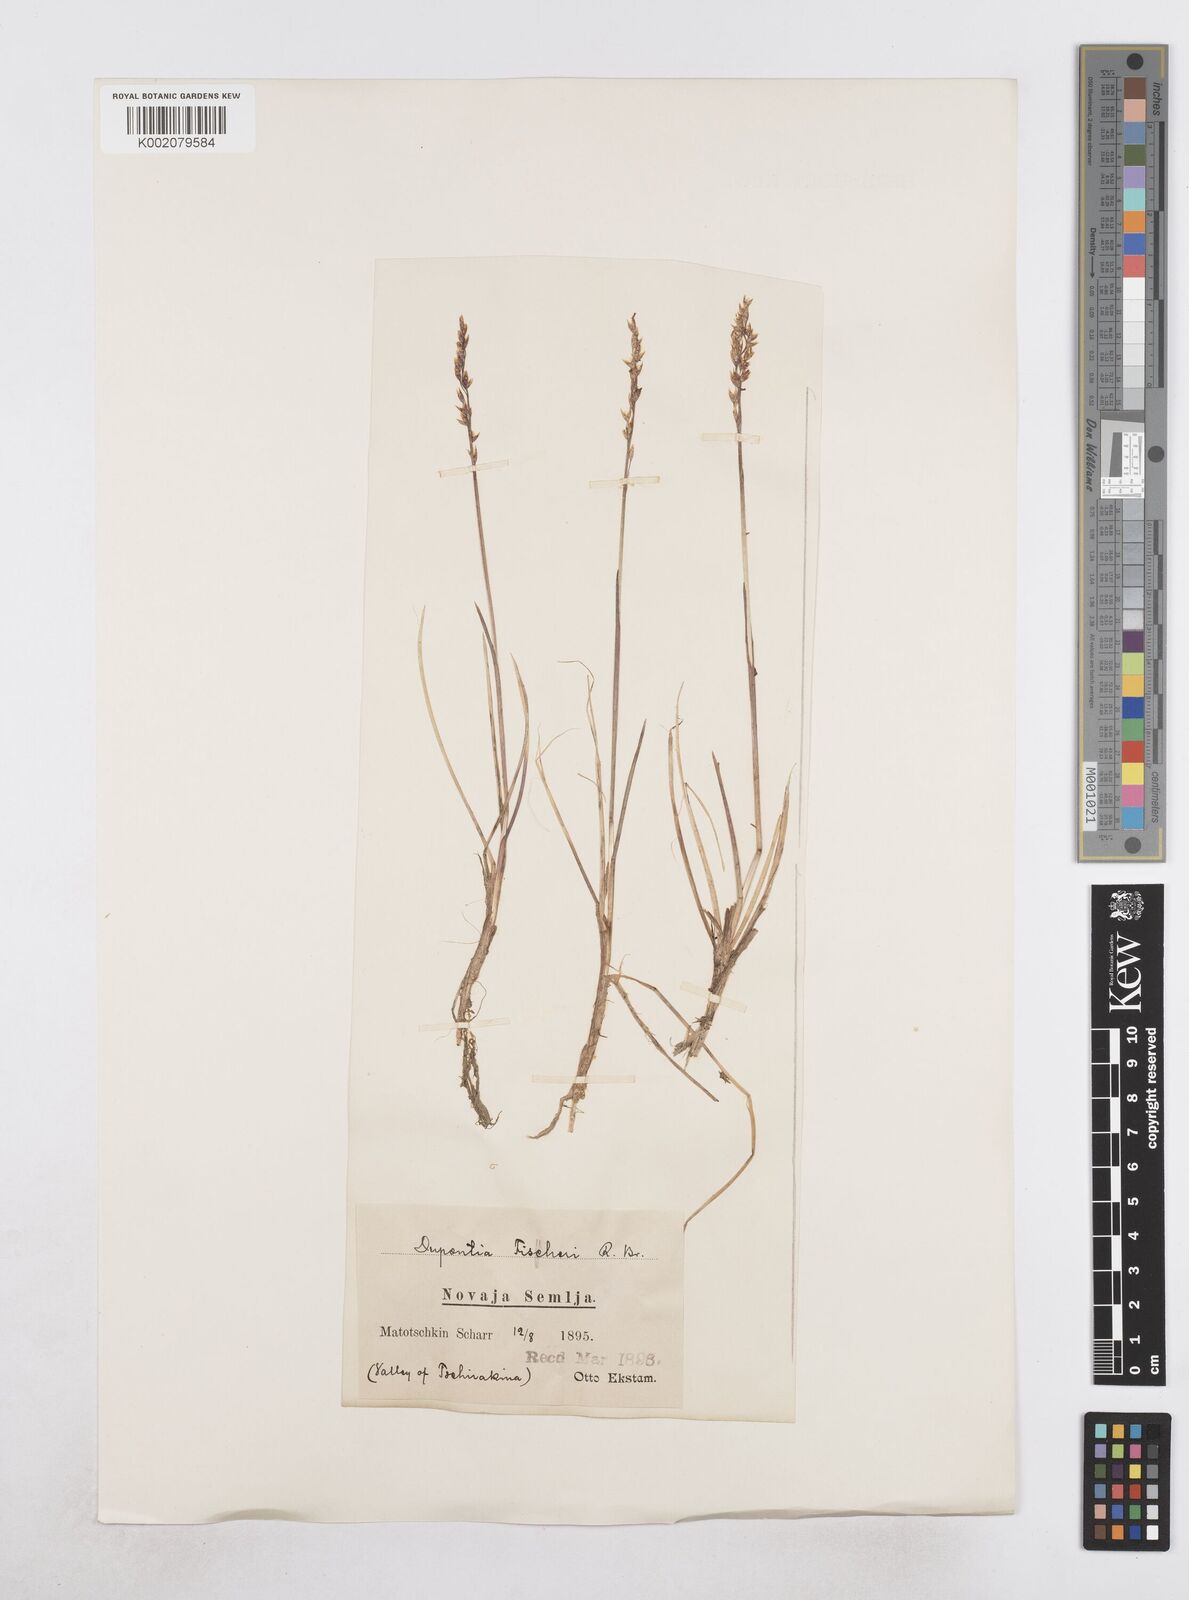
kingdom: Plantae
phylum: Tracheophyta
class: Liliopsida
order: Poales
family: Poaceae
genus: Dupontia
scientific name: Dupontia fisheri
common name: Tundra grass
